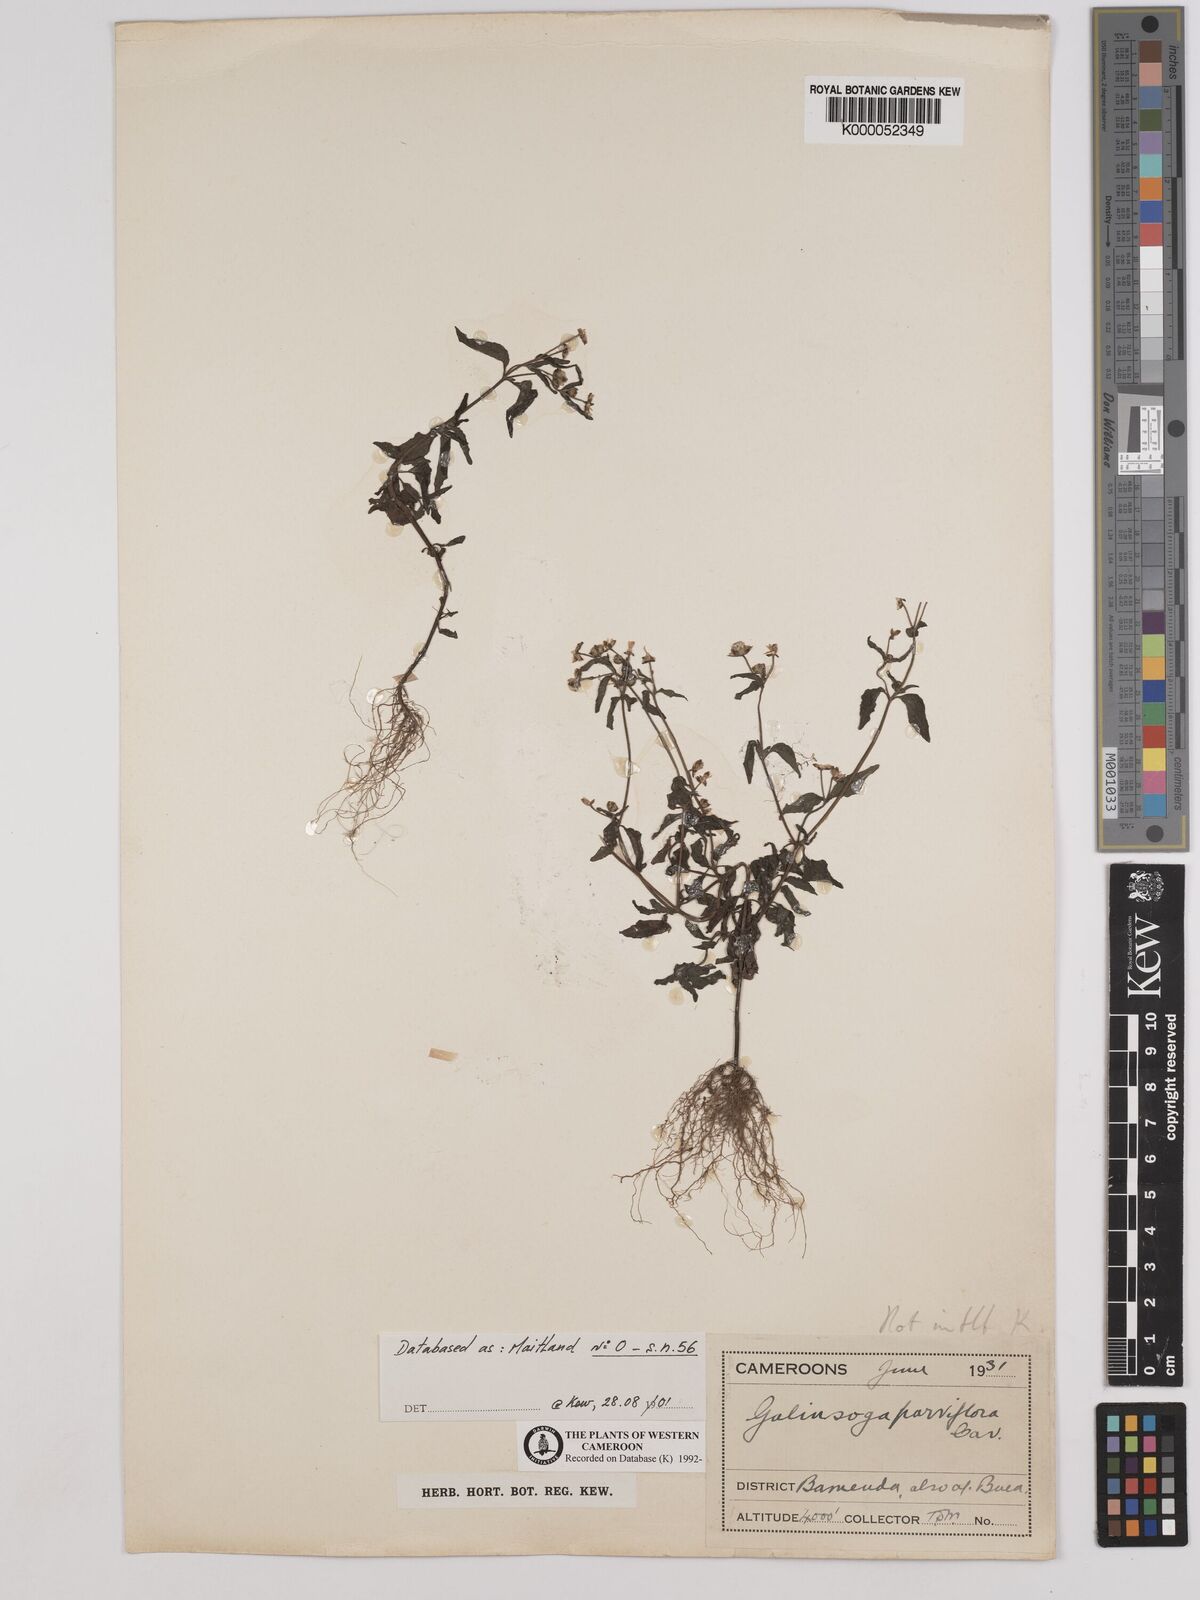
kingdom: Plantae
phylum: Tracheophyta
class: Magnoliopsida
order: Asterales
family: Asteraceae
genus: Galinsoga
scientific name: Galinsoga parviflora
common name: Gallant soldier
